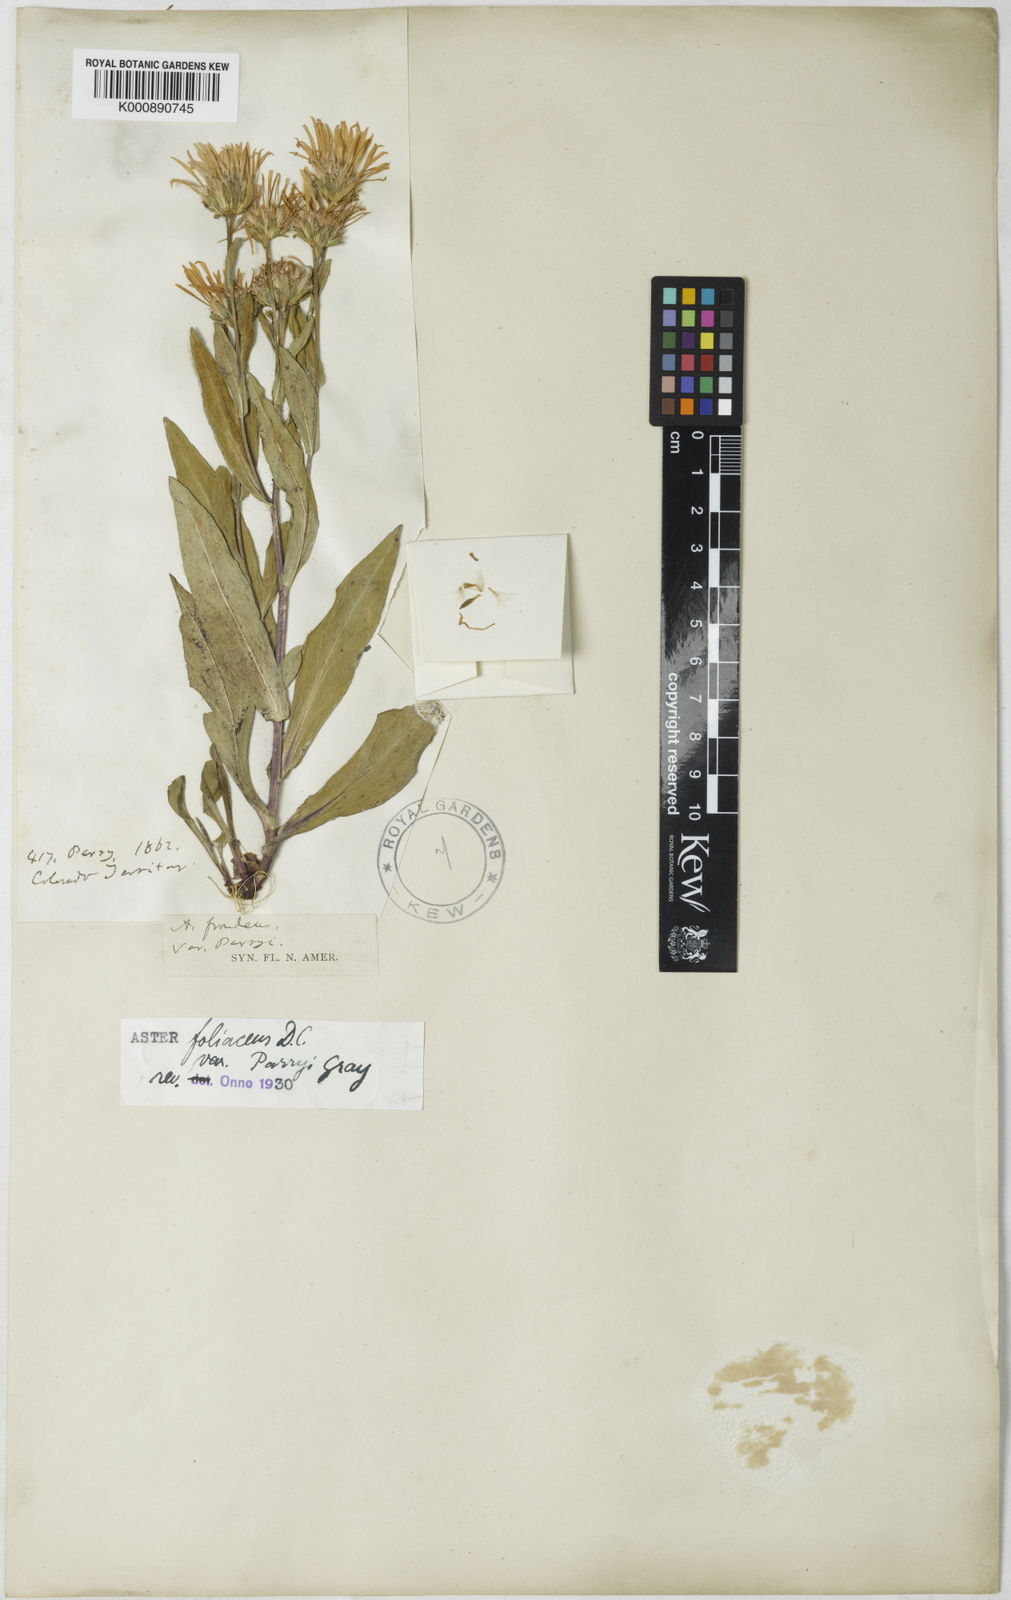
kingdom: Plantae
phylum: Tracheophyta
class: Magnoliopsida
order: Asterales
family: Asteraceae
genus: Symphyotrichum
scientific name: Symphyotrichum foliaceum
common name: Leafy aster
